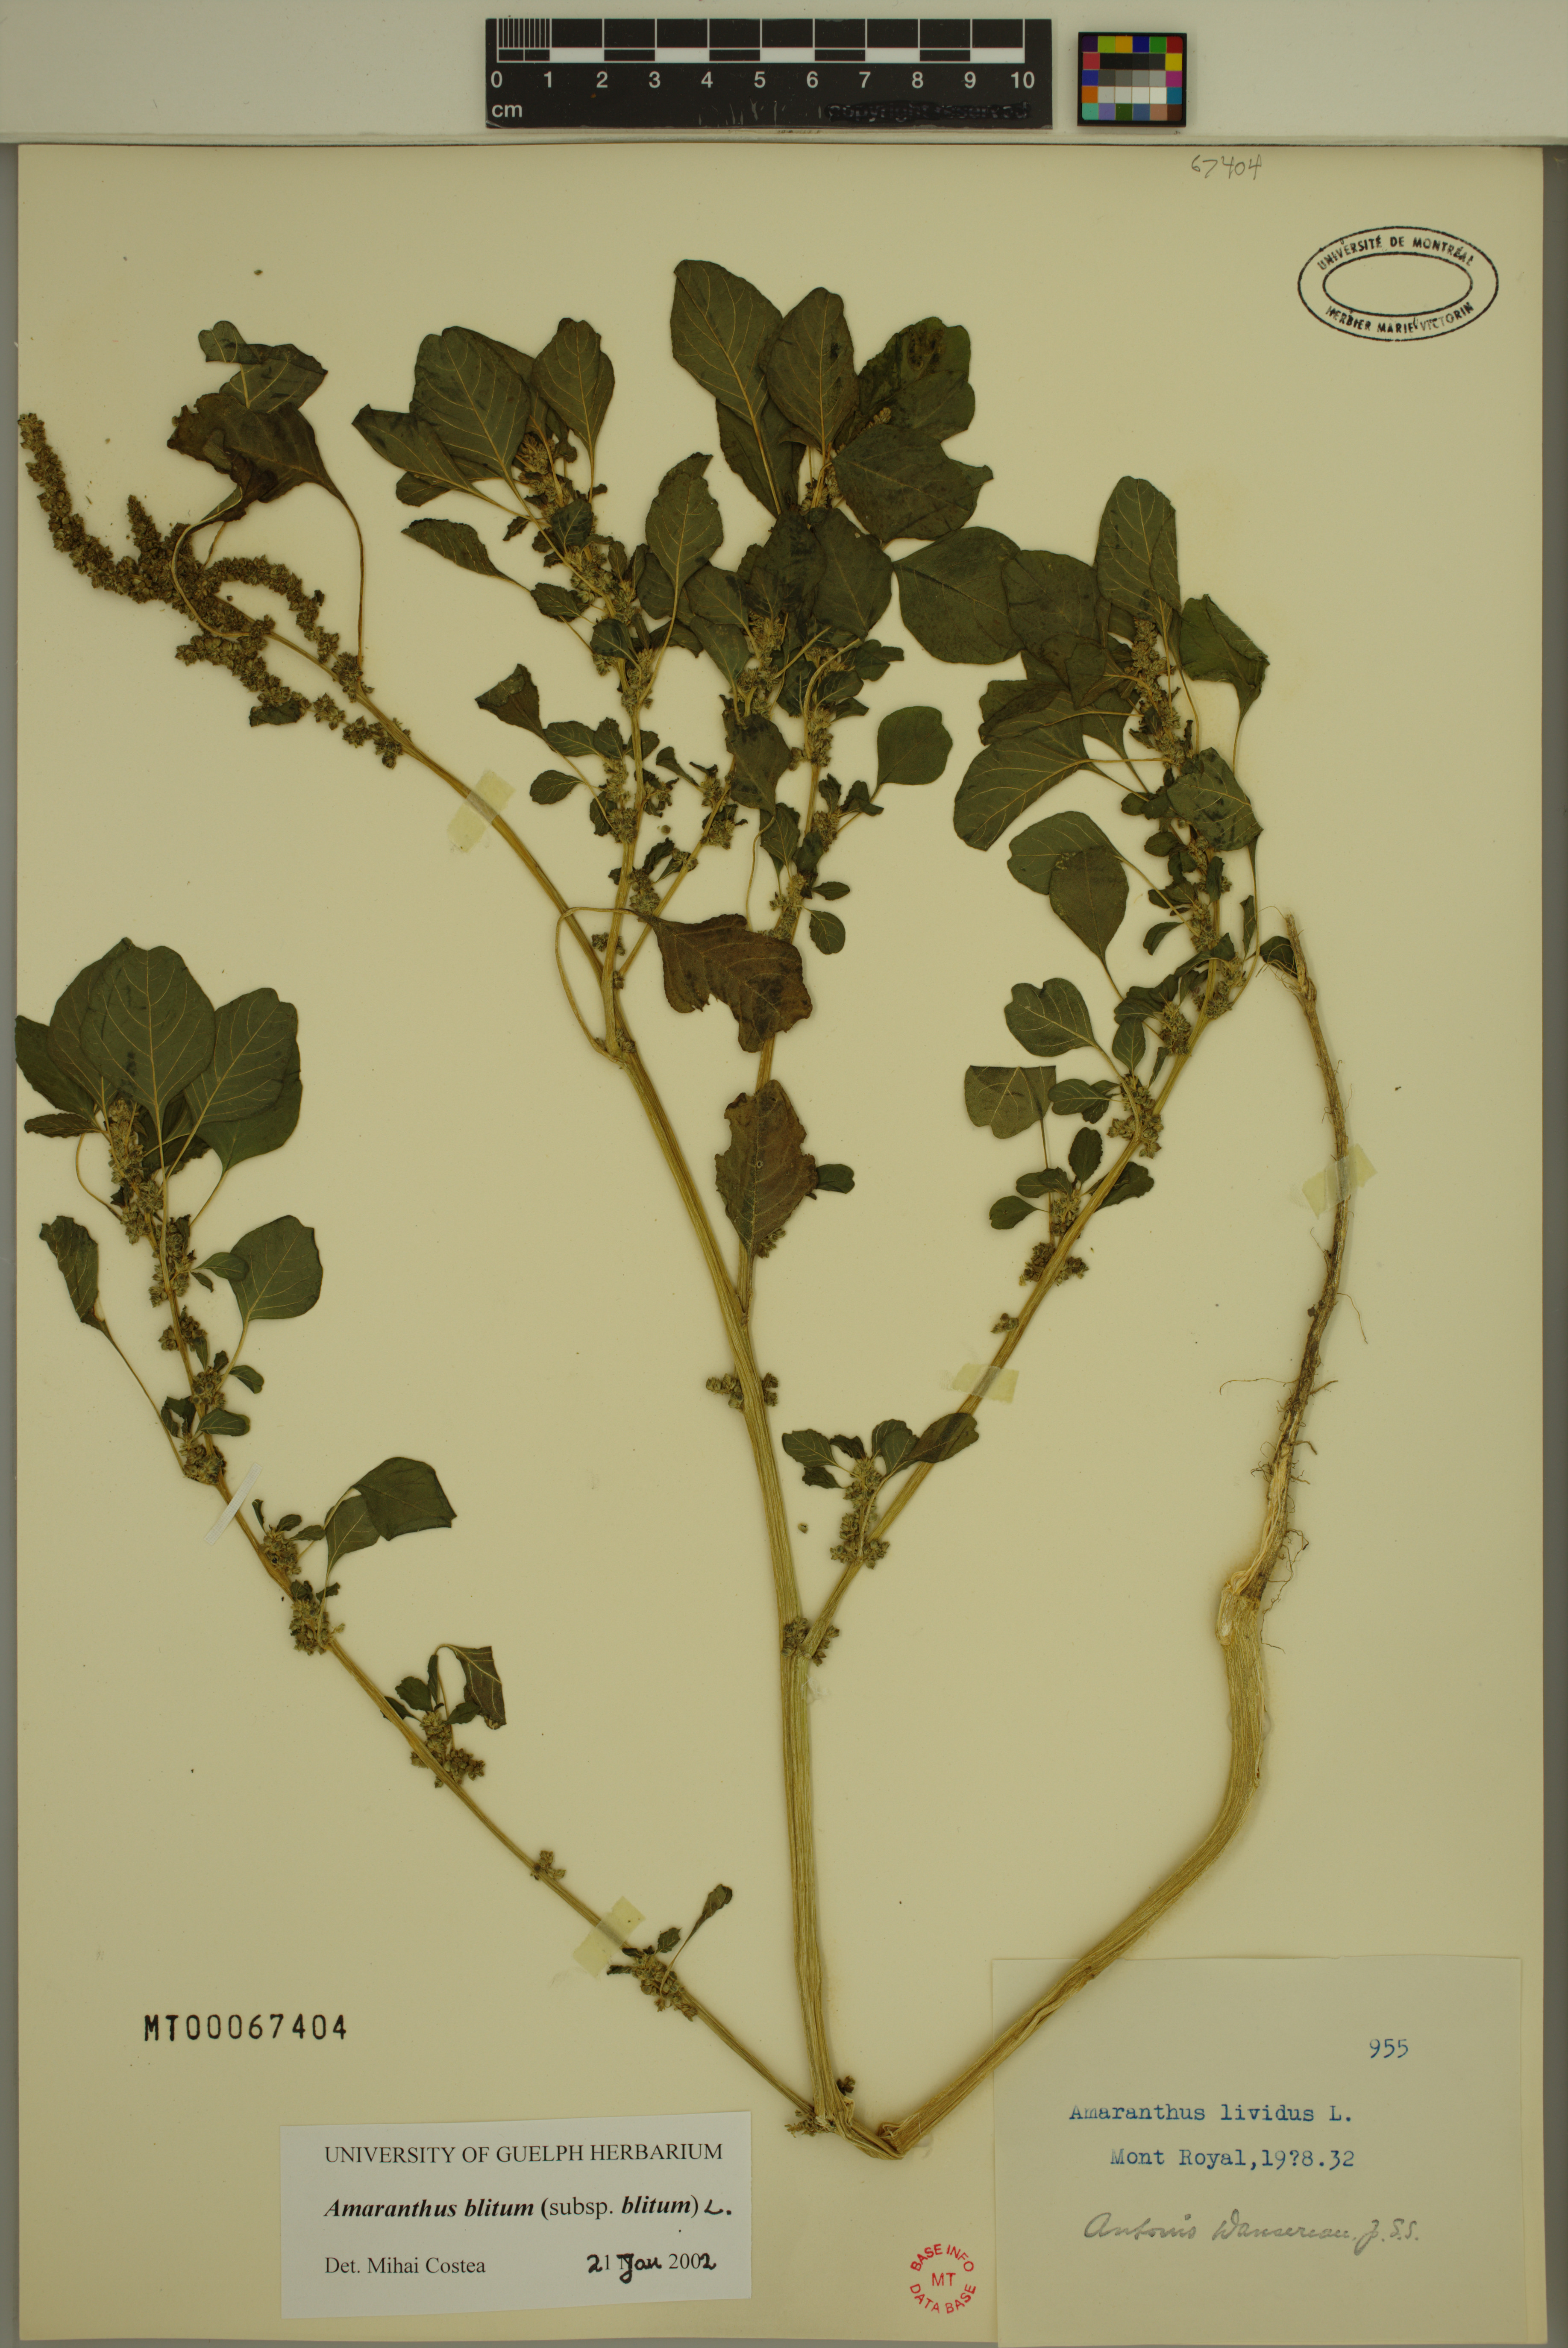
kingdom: Plantae
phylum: Tracheophyta
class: Magnoliopsida
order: Caryophyllales
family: Amaranthaceae
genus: Amaranthus
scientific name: Amaranthus blitum
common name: Purple amaranth
